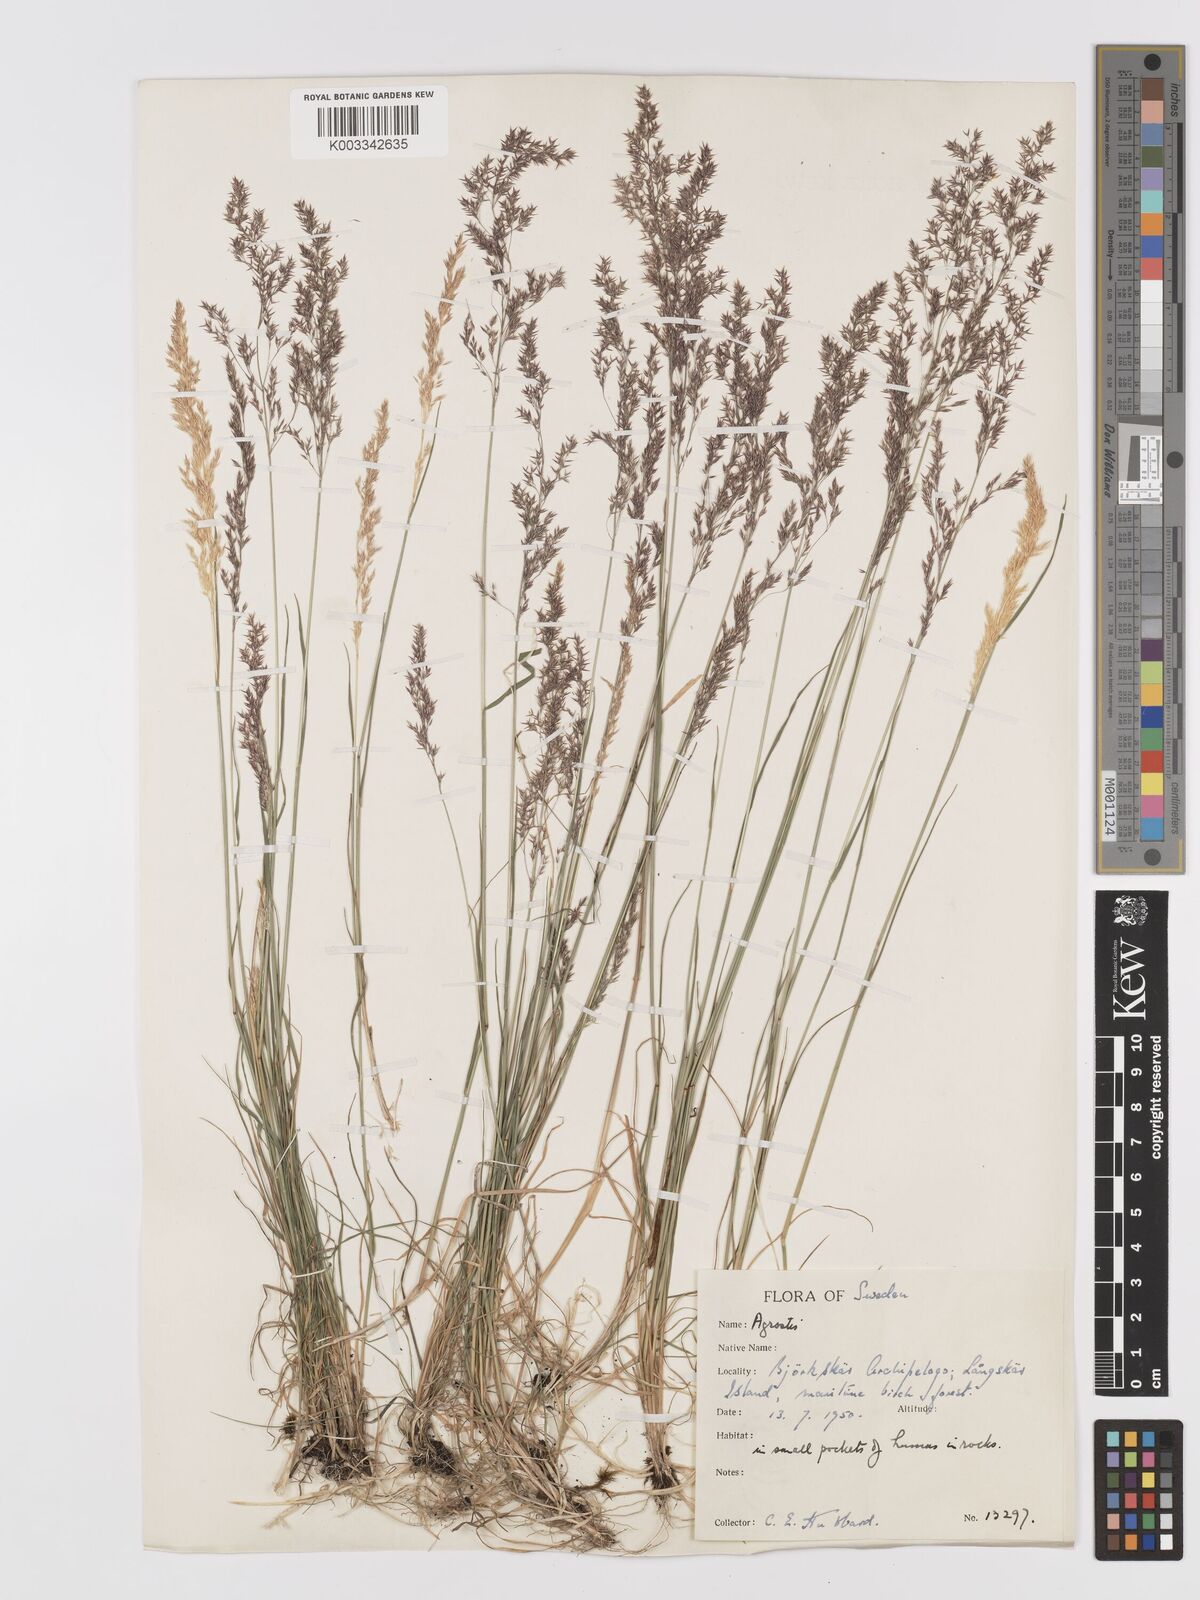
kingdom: Plantae
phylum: Tracheophyta
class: Liliopsida
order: Poales
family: Poaceae
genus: Agrostis
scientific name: Agrostis
